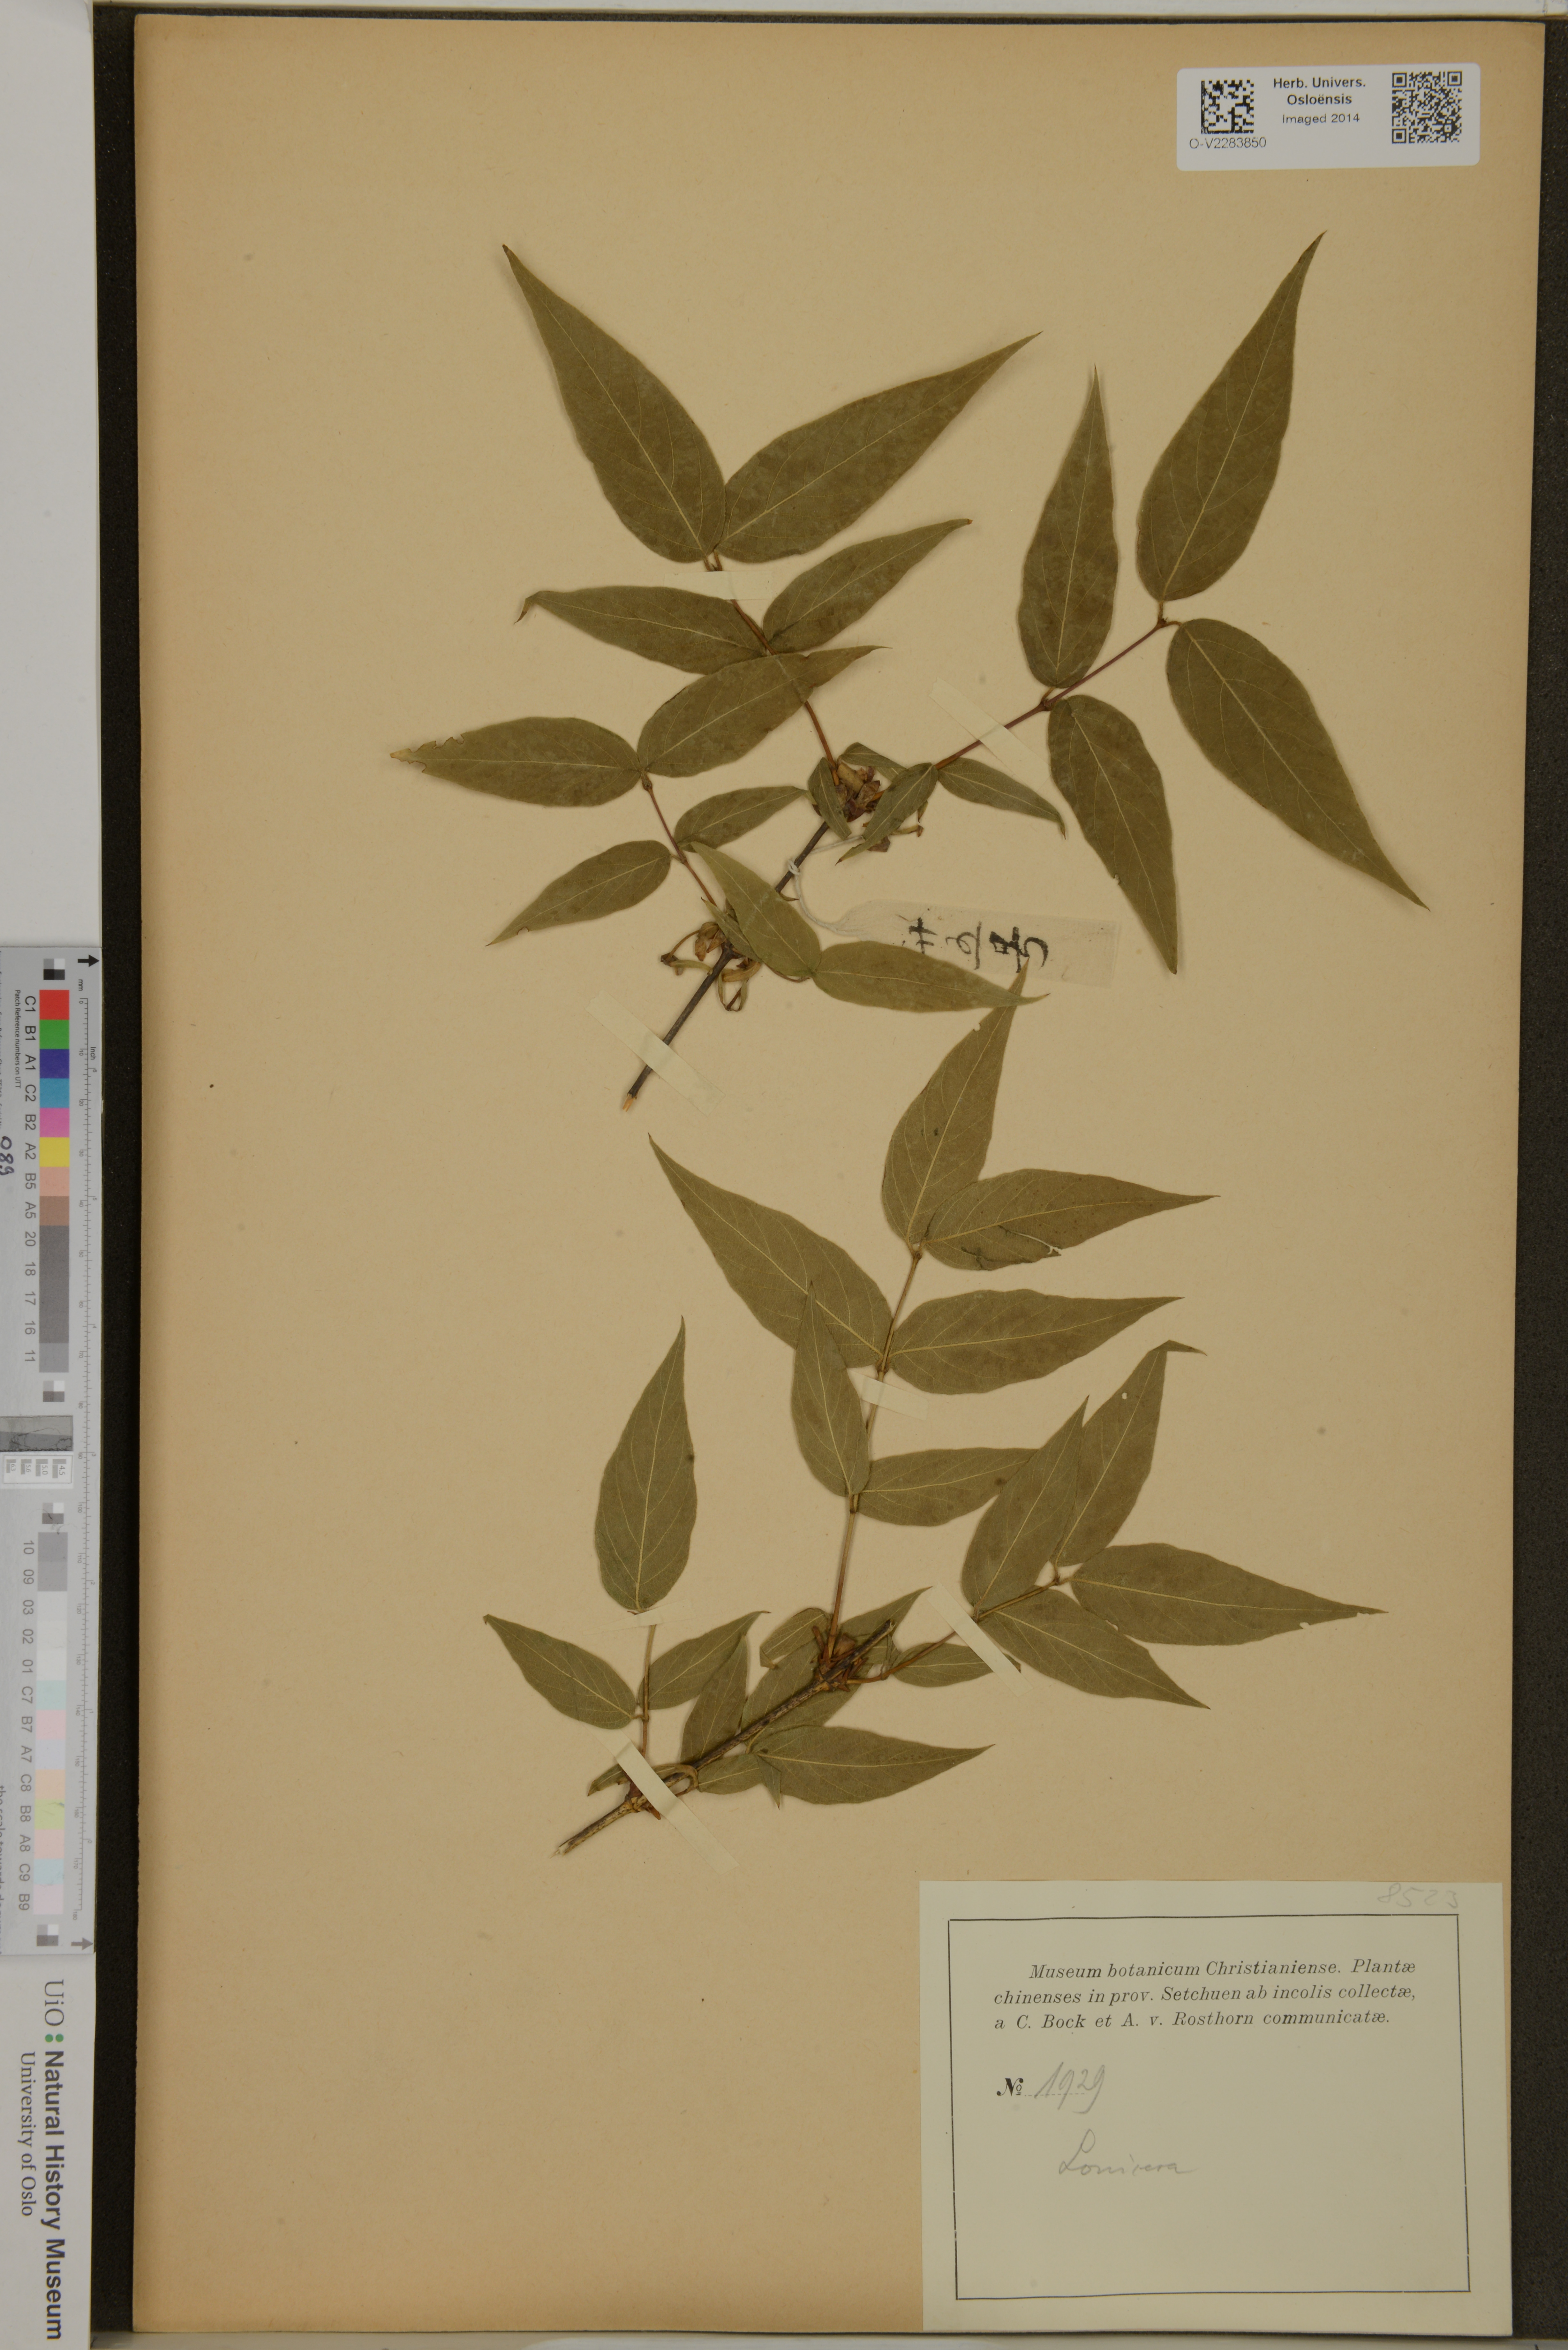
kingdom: Plantae
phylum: Tracheophyta
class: Magnoliopsida
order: Dipsacales
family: Caprifoliaceae
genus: Lonicera
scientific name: Lonicera
